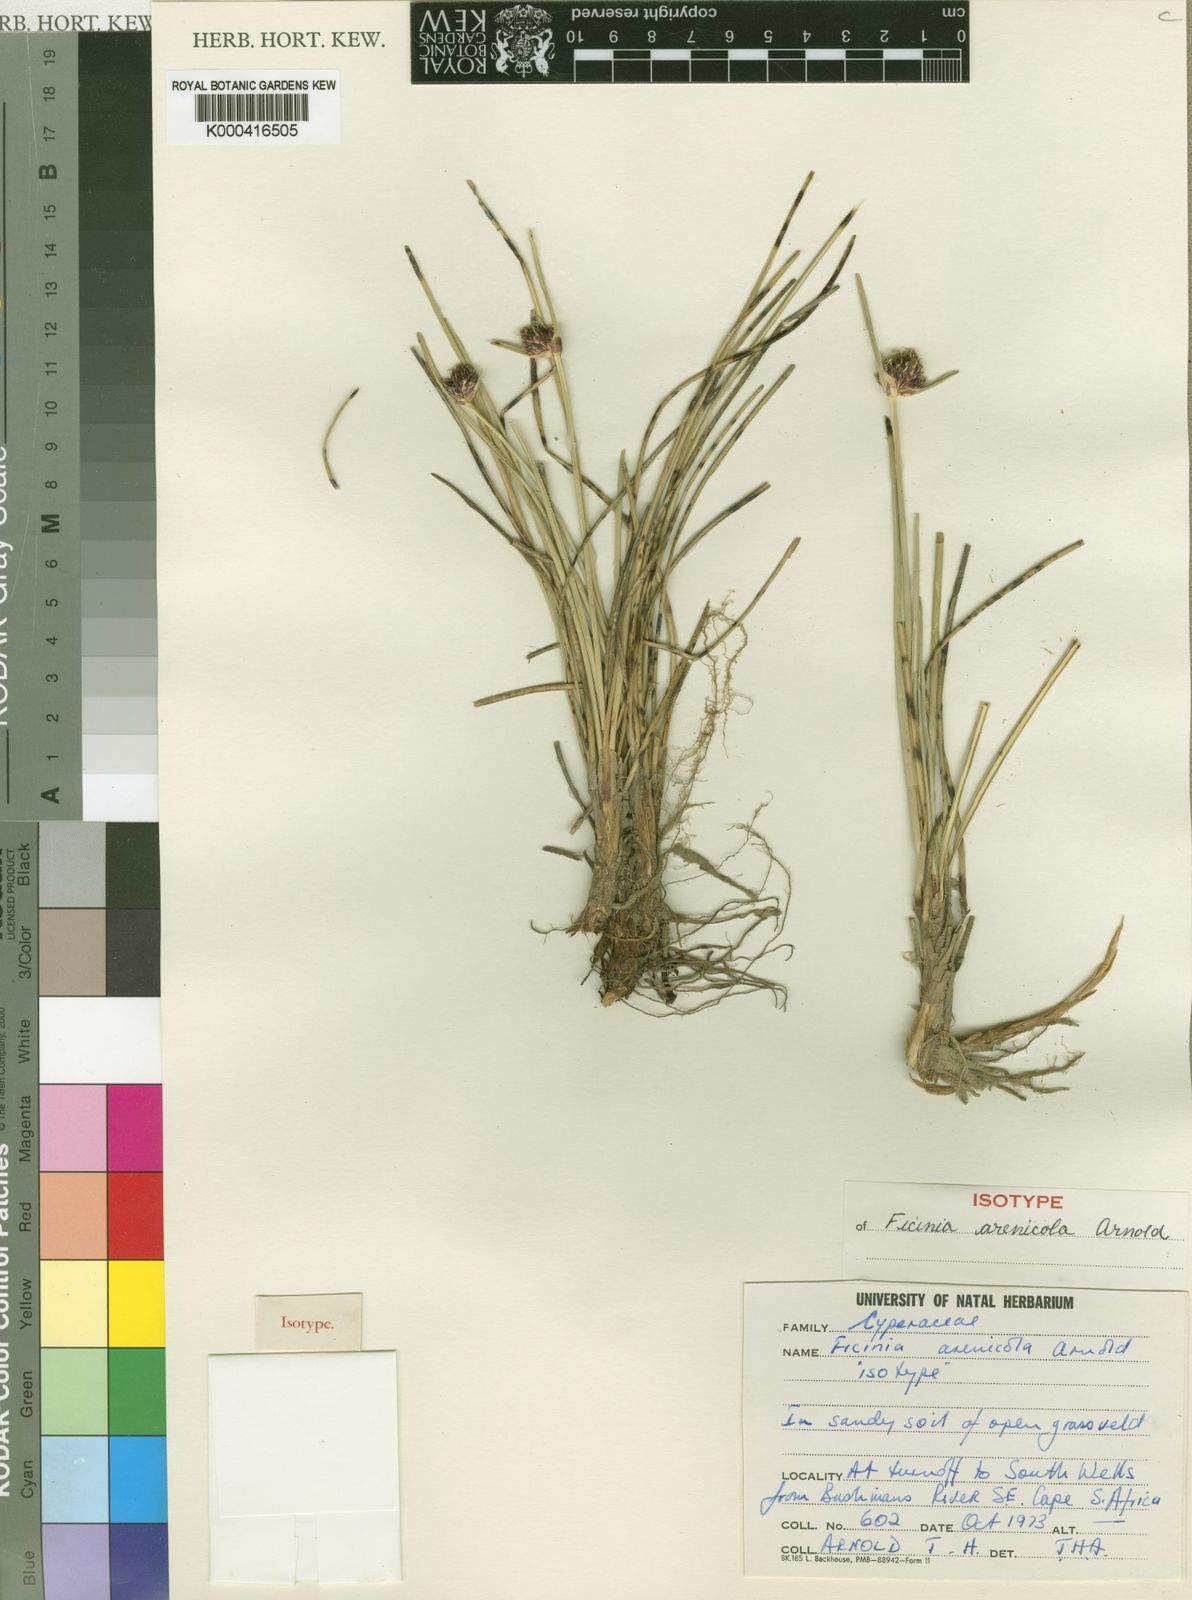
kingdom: Plantae
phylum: Tracheophyta
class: Liliopsida
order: Poales
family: Cyperaceae
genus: Ficinia
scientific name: Ficinia arenicola
